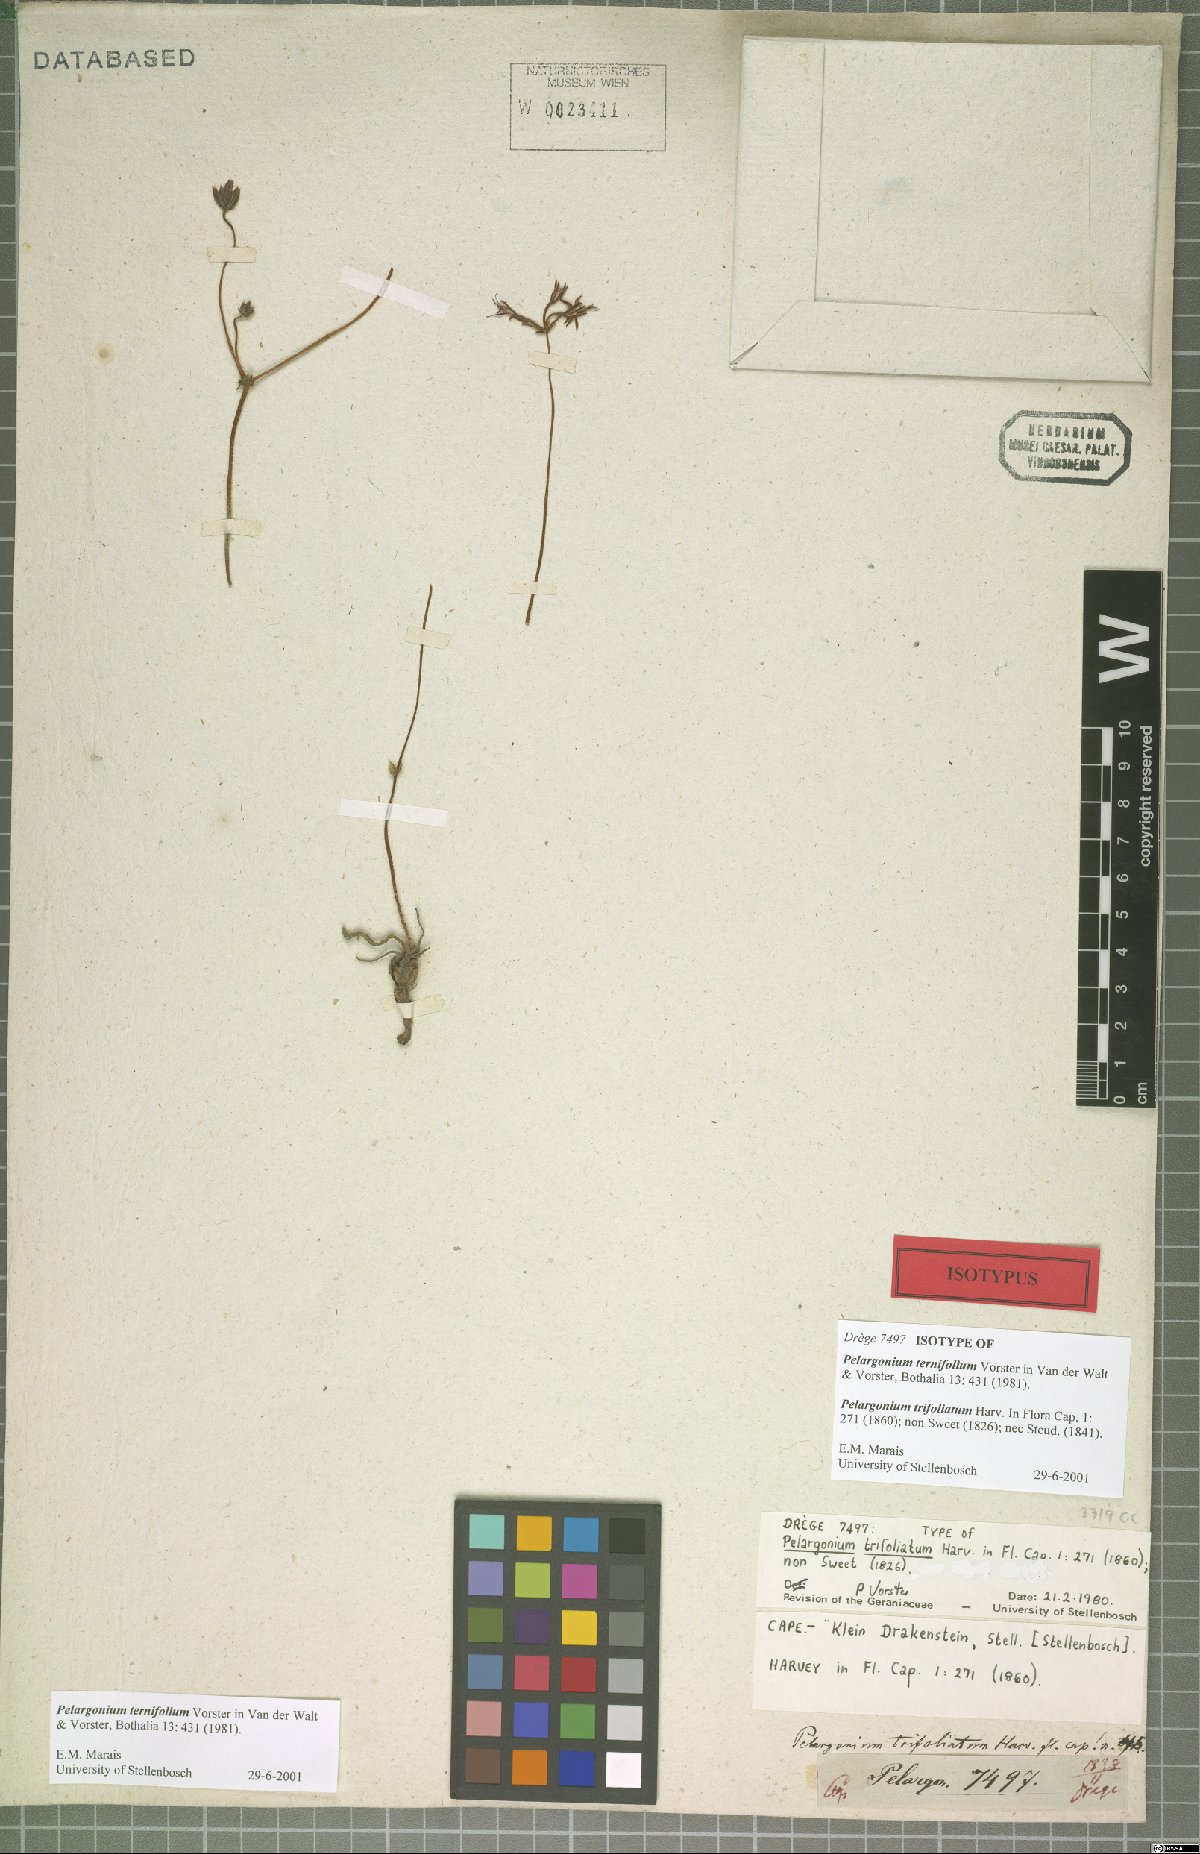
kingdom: Plantae
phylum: Tracheophyta
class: Magnoliopsida
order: Geraniales
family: Geraniaceae
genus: Pelargonium
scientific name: Pelargonium ternifolium
